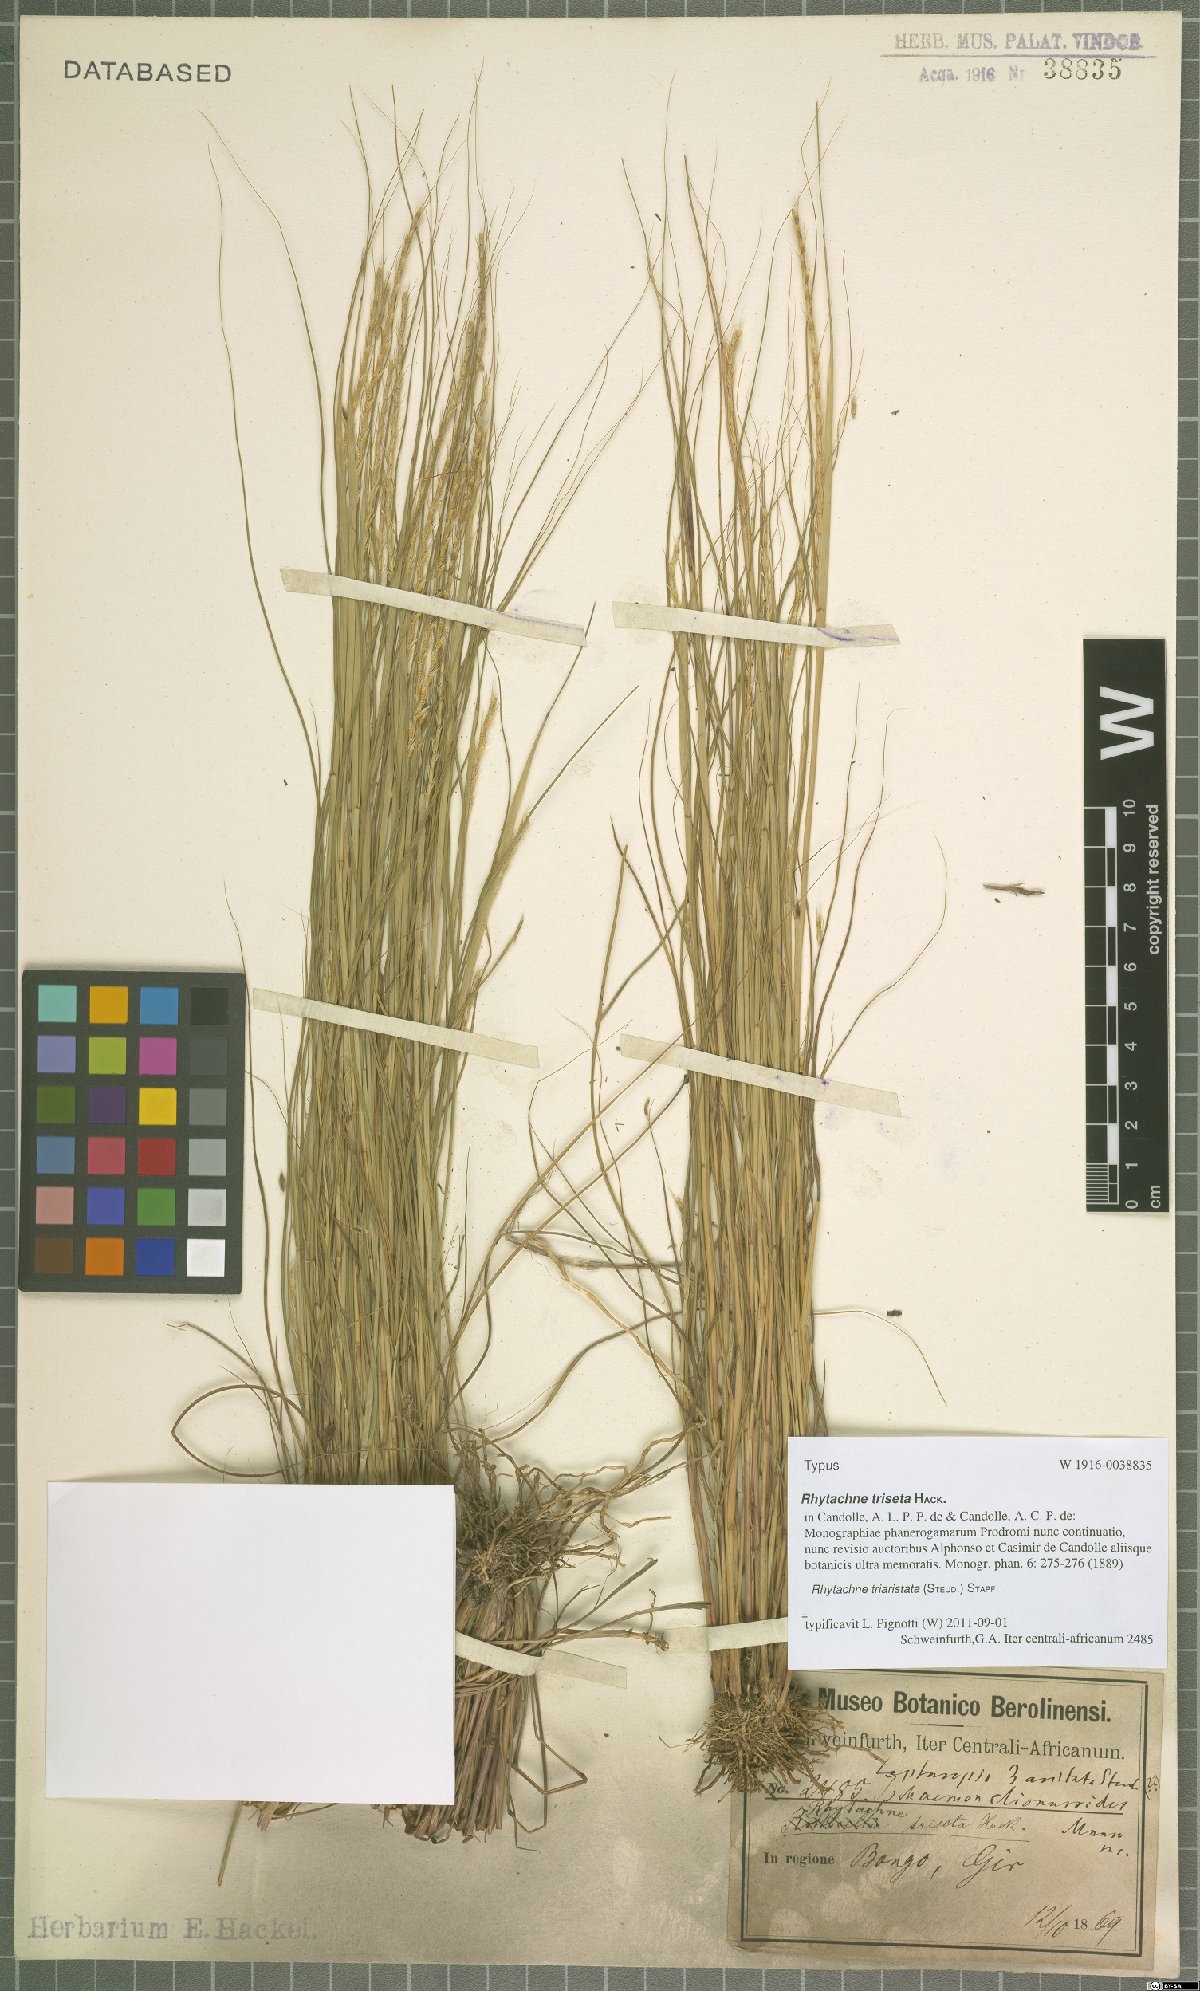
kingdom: Plantae
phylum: Tracheophyta
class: Liliopsida
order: Poales
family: Poaceae
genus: Rhytachne
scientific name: Rhytachne triaristata
